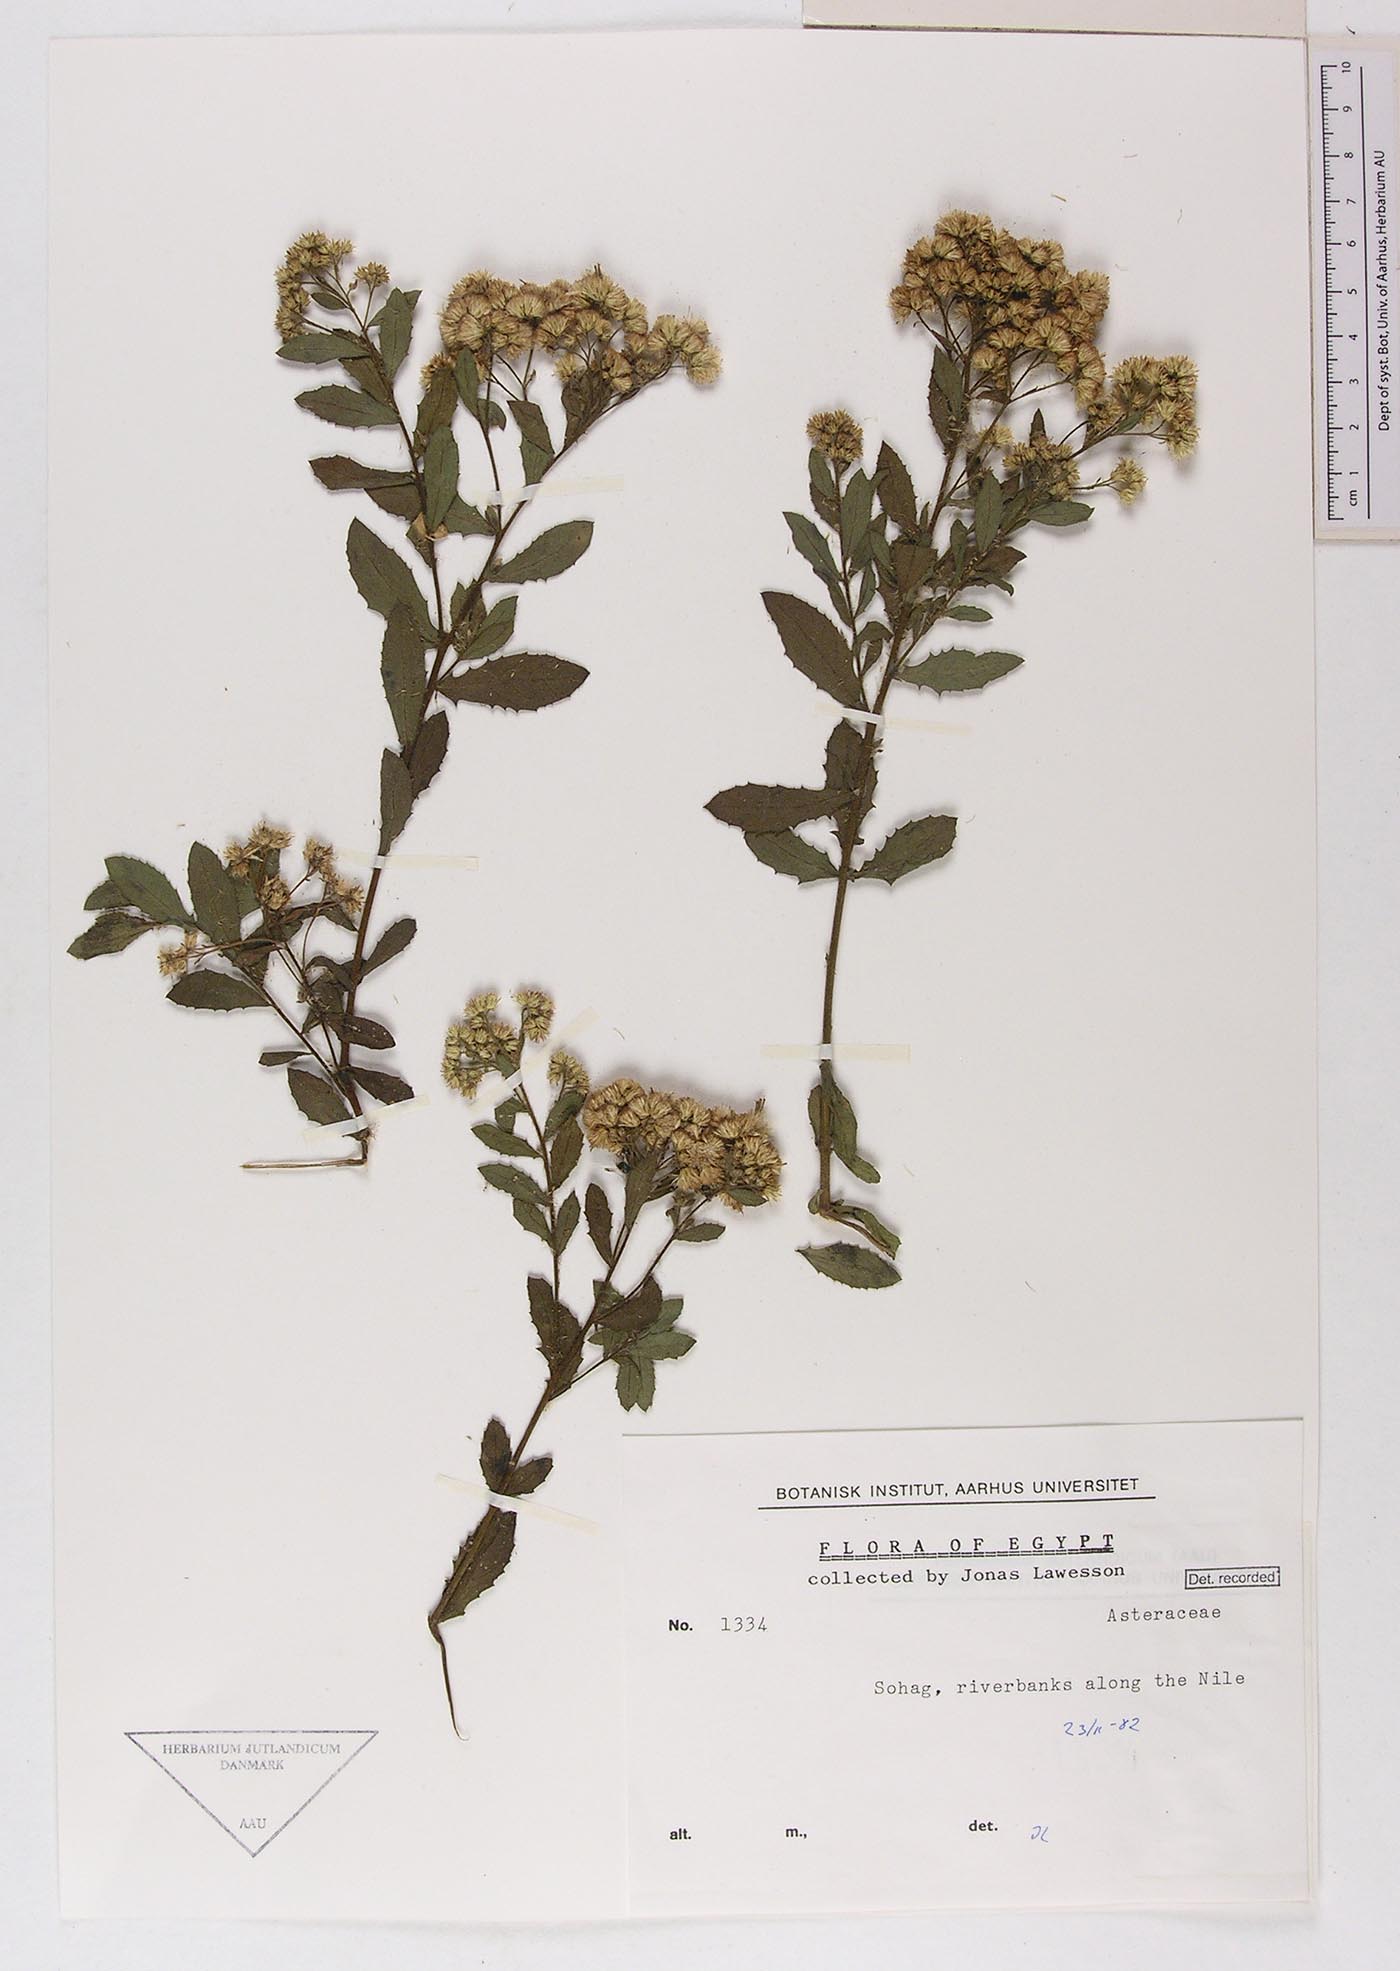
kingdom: Plantae
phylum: Tracheophyta
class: Magnoliopsida
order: Asterales
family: Asteraceae
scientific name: Asteraceae
